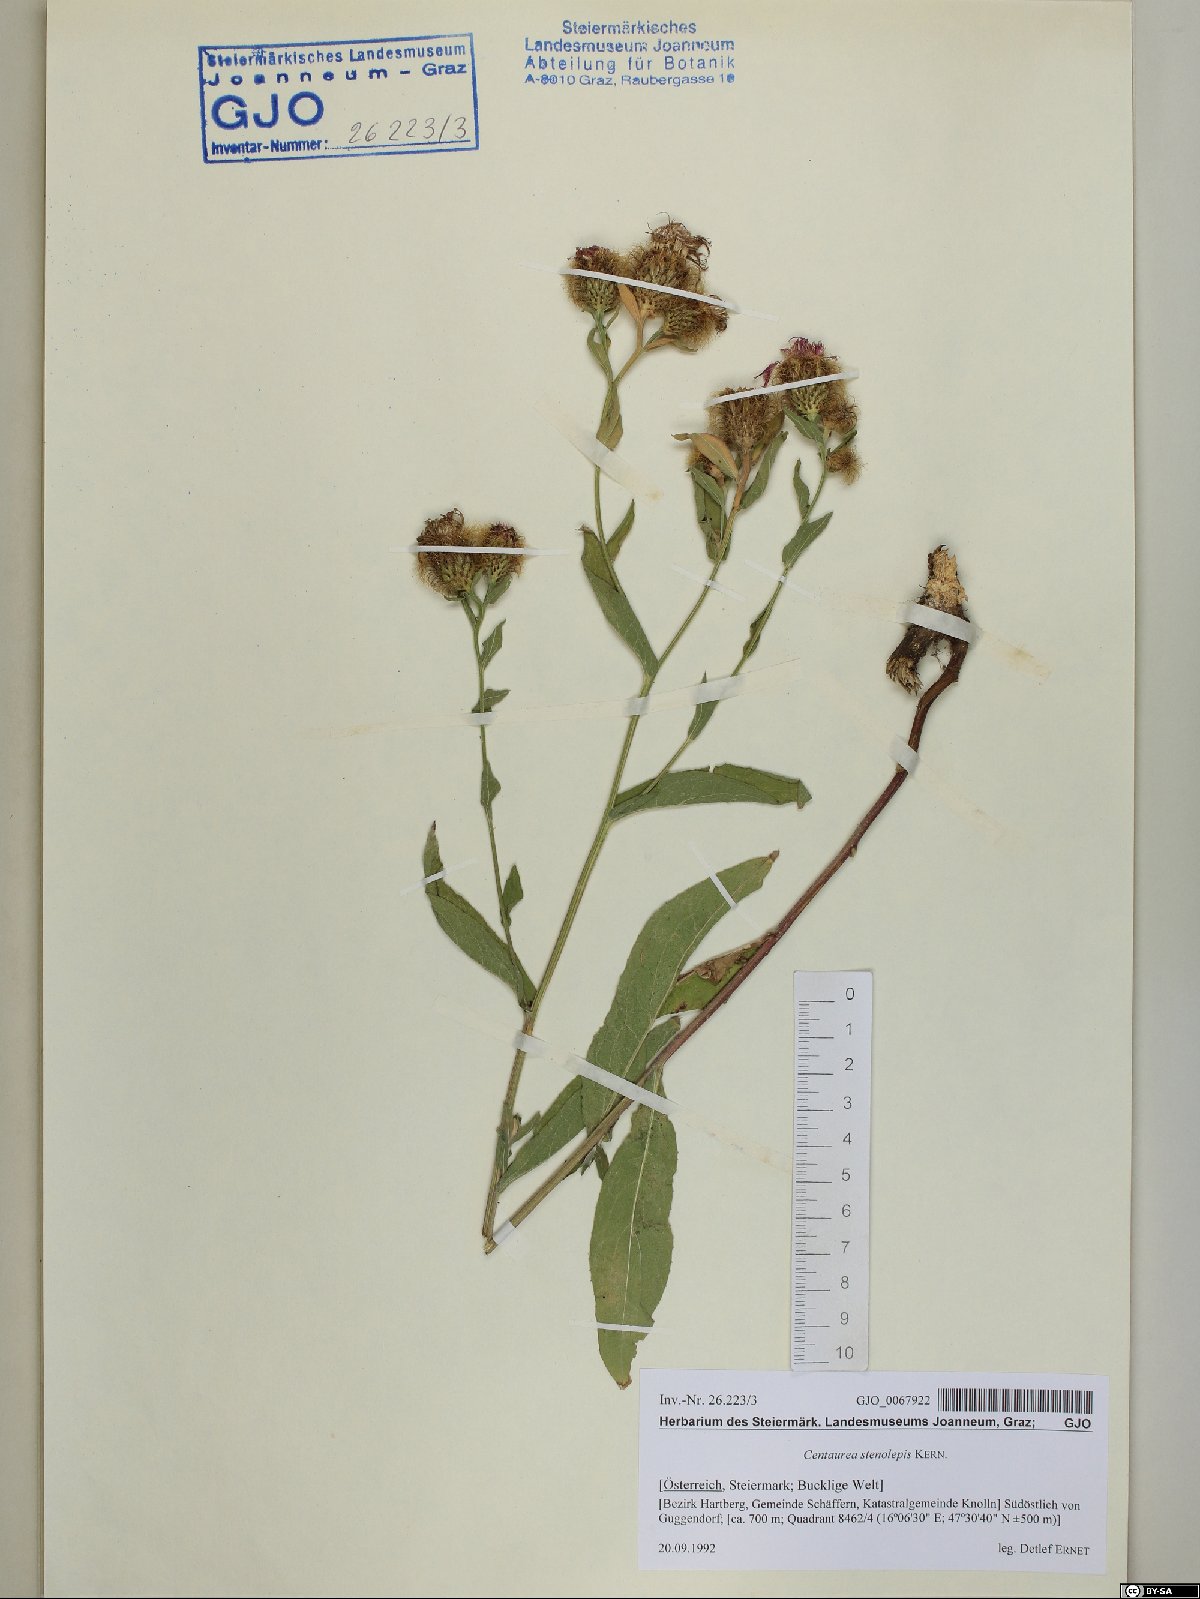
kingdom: Plantae
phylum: Tracheophyta
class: Magnoliopsida
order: Asterales
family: Asteraceae
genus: Centaurea
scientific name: Centaurea stenolepis
